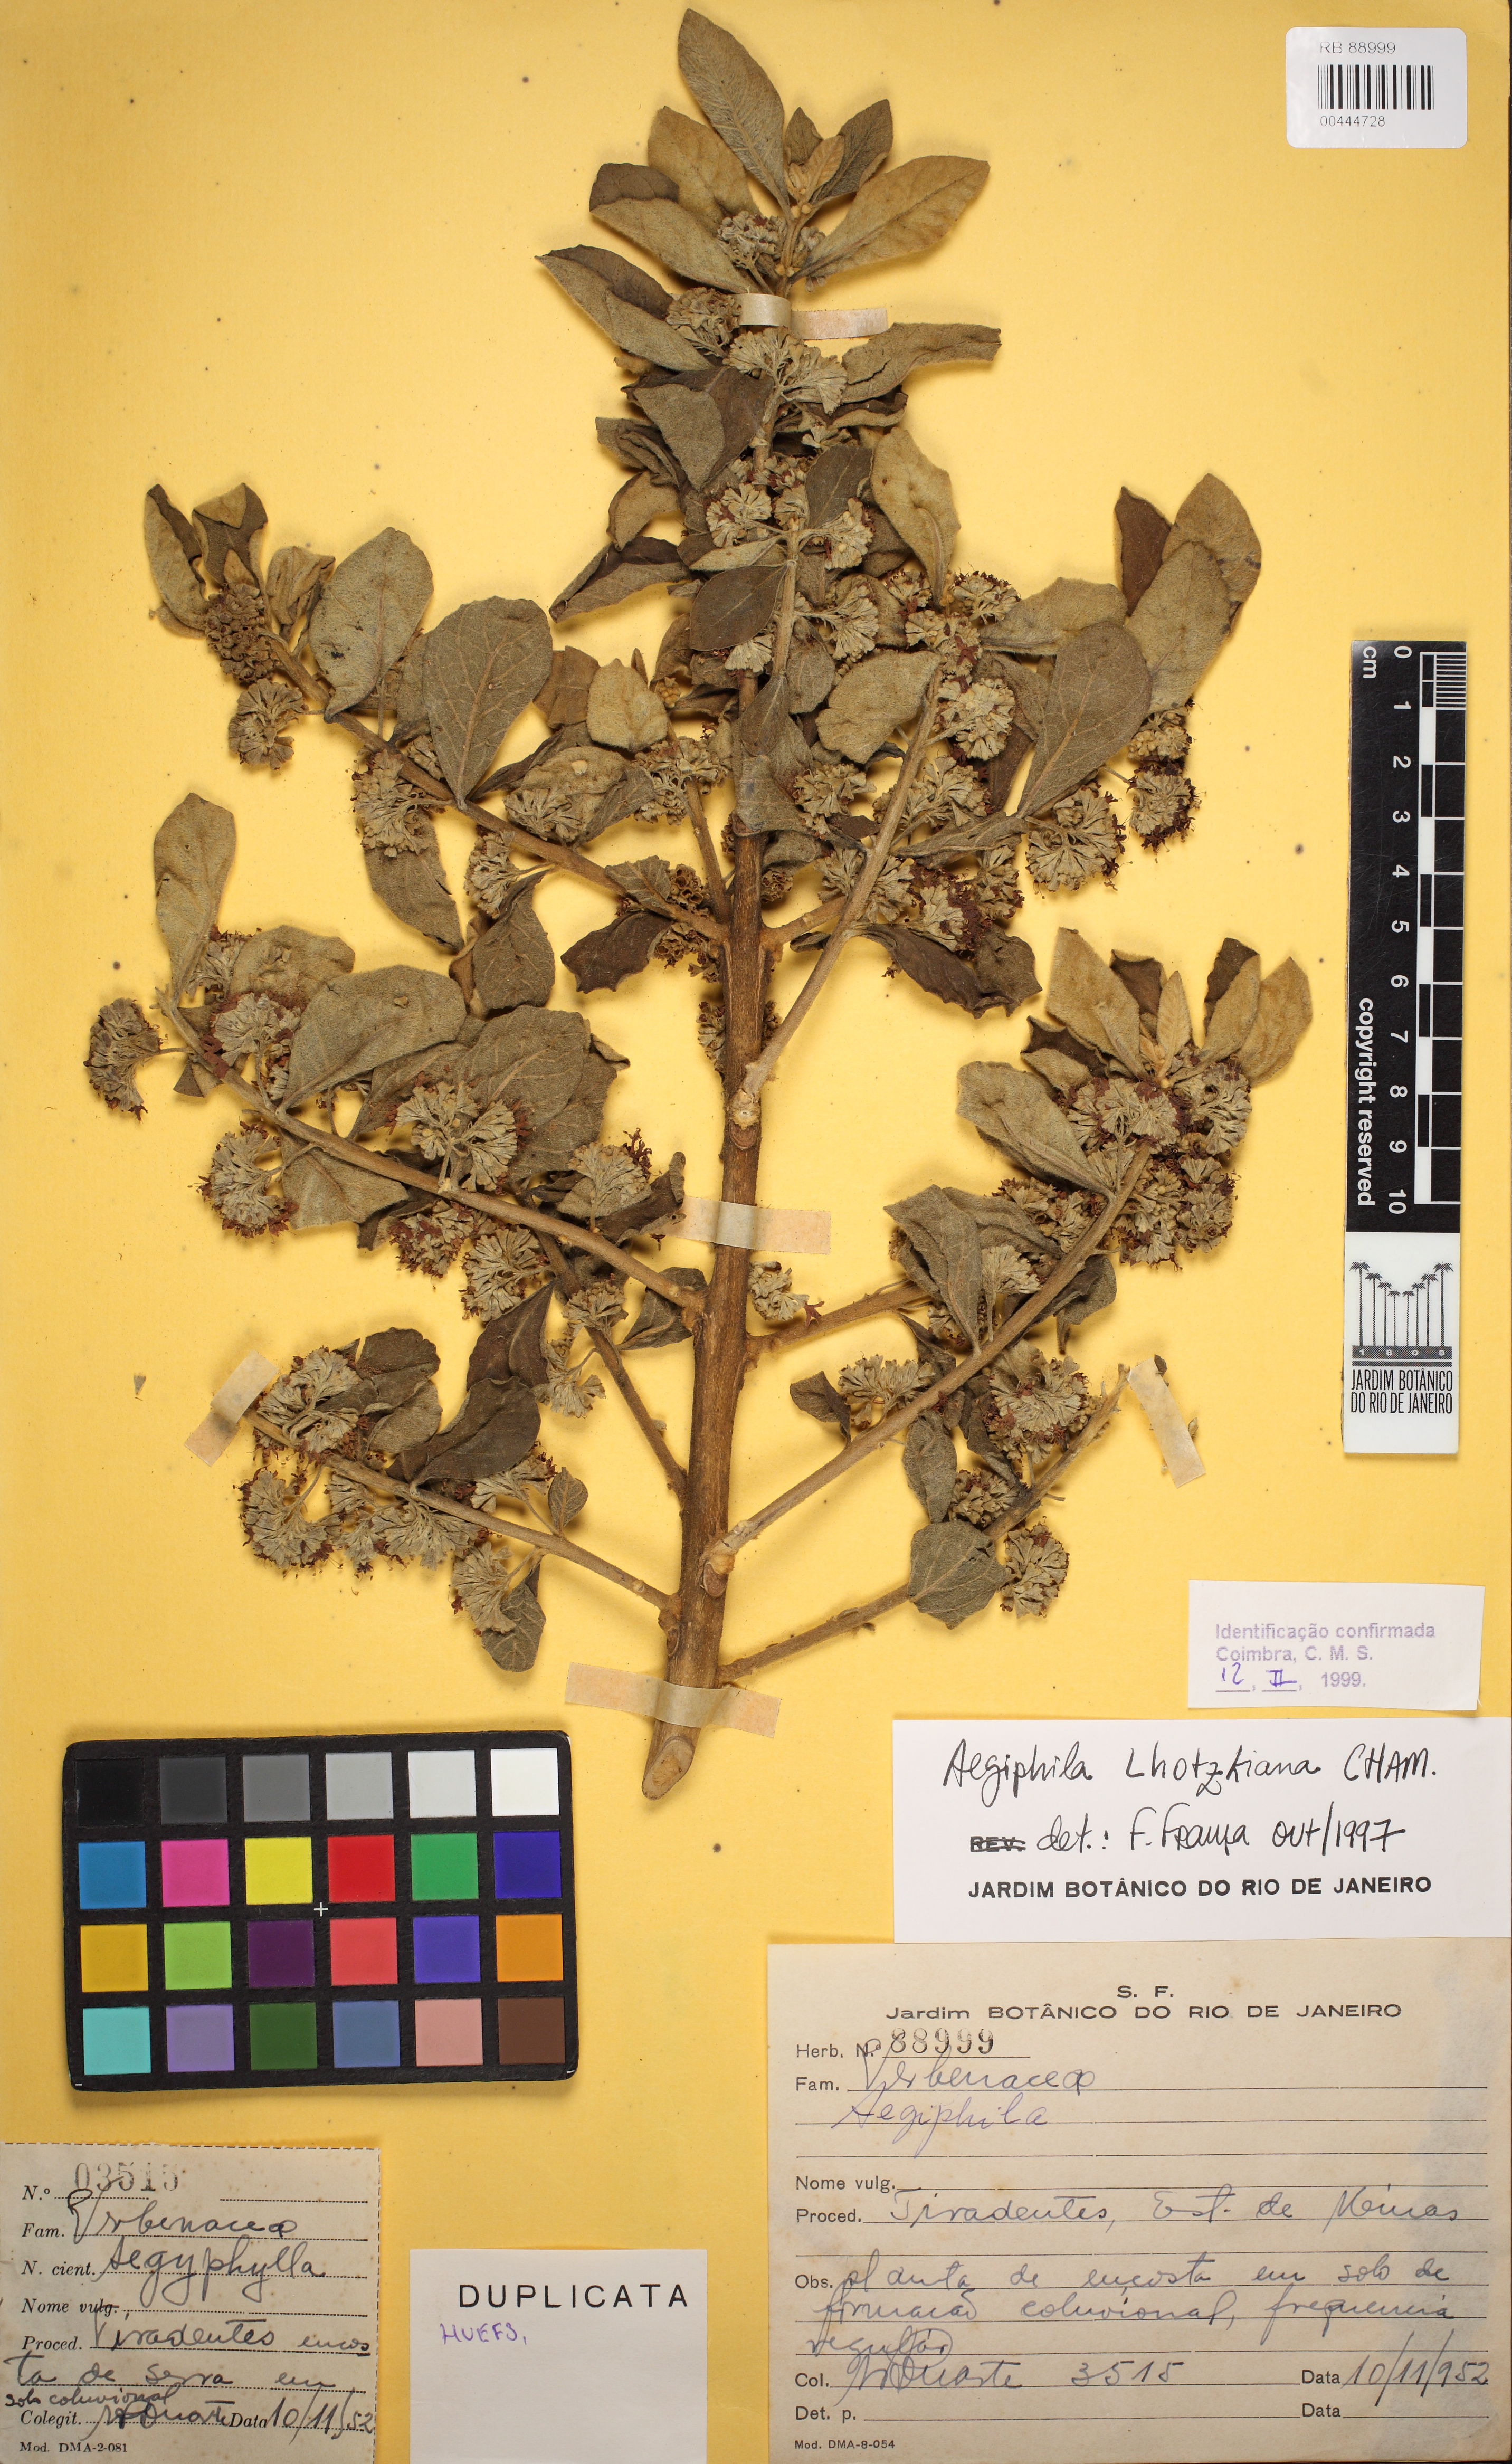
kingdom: Plantae
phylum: Tracheophyta
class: Magnoliopsida
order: Lamiales
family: Lamiaceae
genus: Aegiphila
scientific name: Aegiphila verticillata
